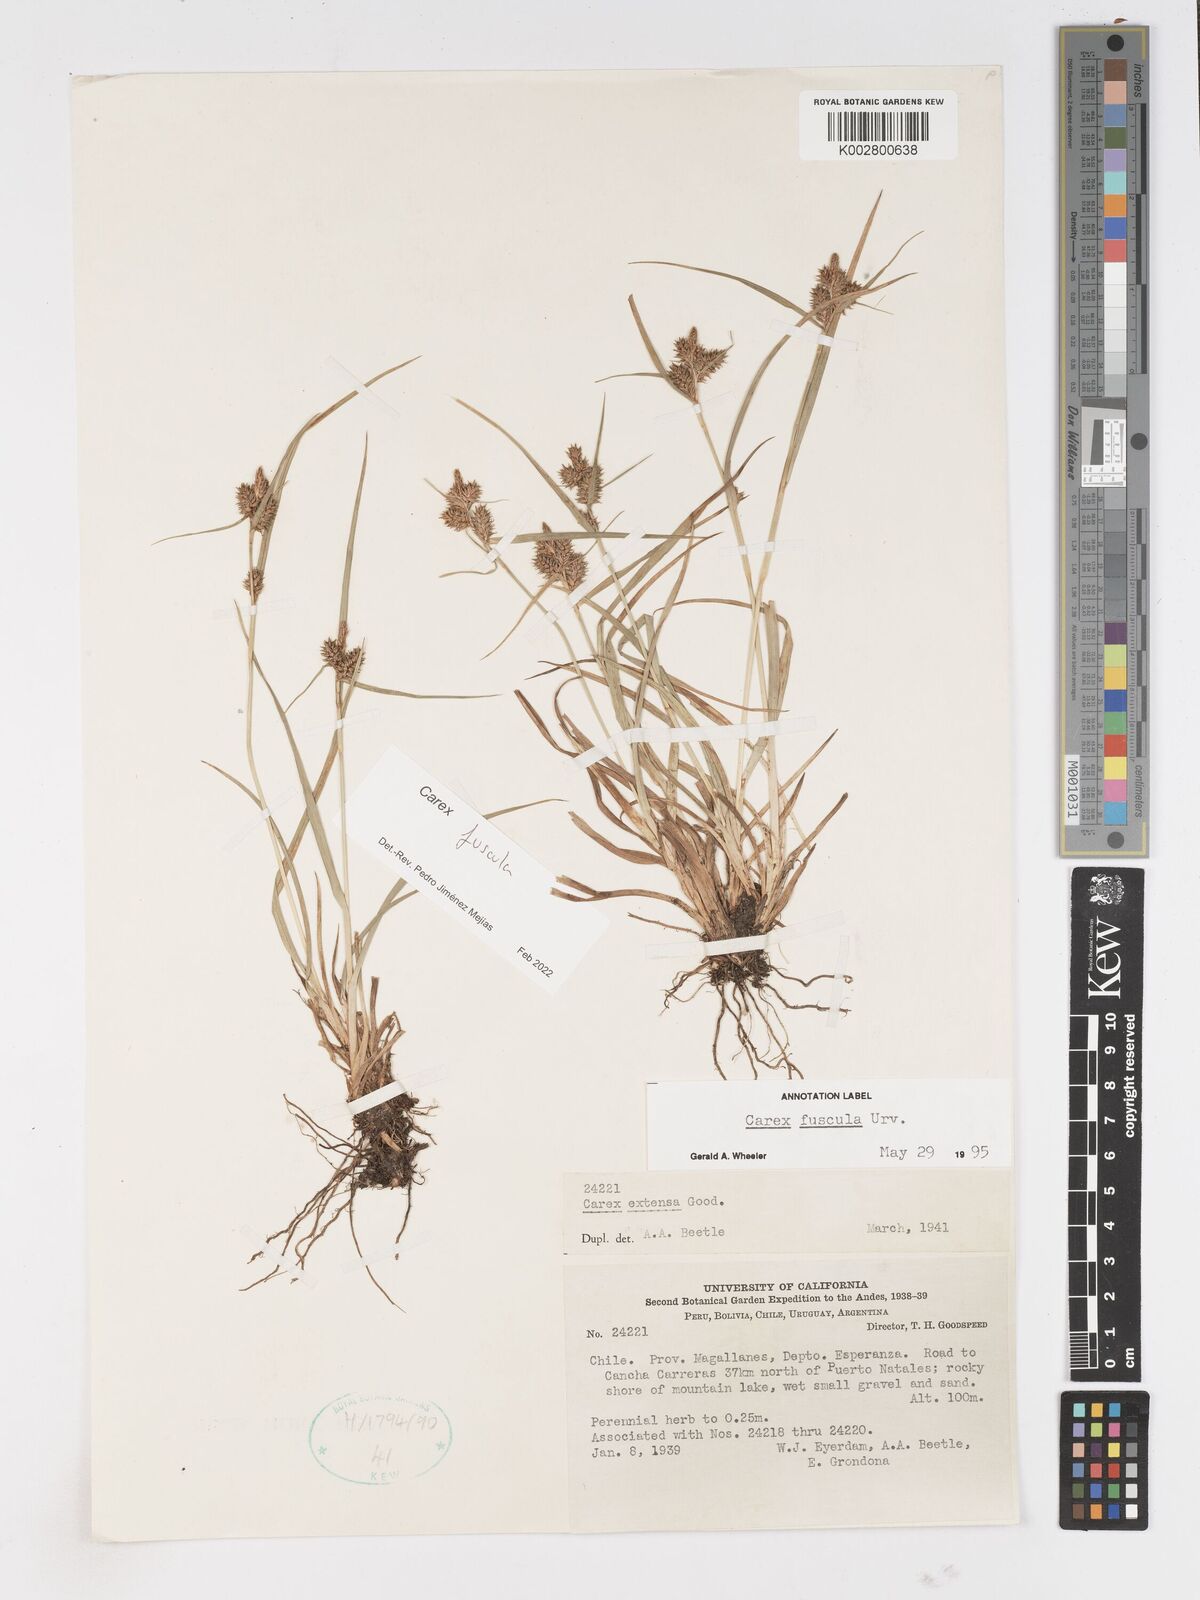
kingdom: Plantae
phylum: Tracheophyta
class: Liliopsida
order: Poales
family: Cyperaceae
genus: Carex
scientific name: Carex fuscula
